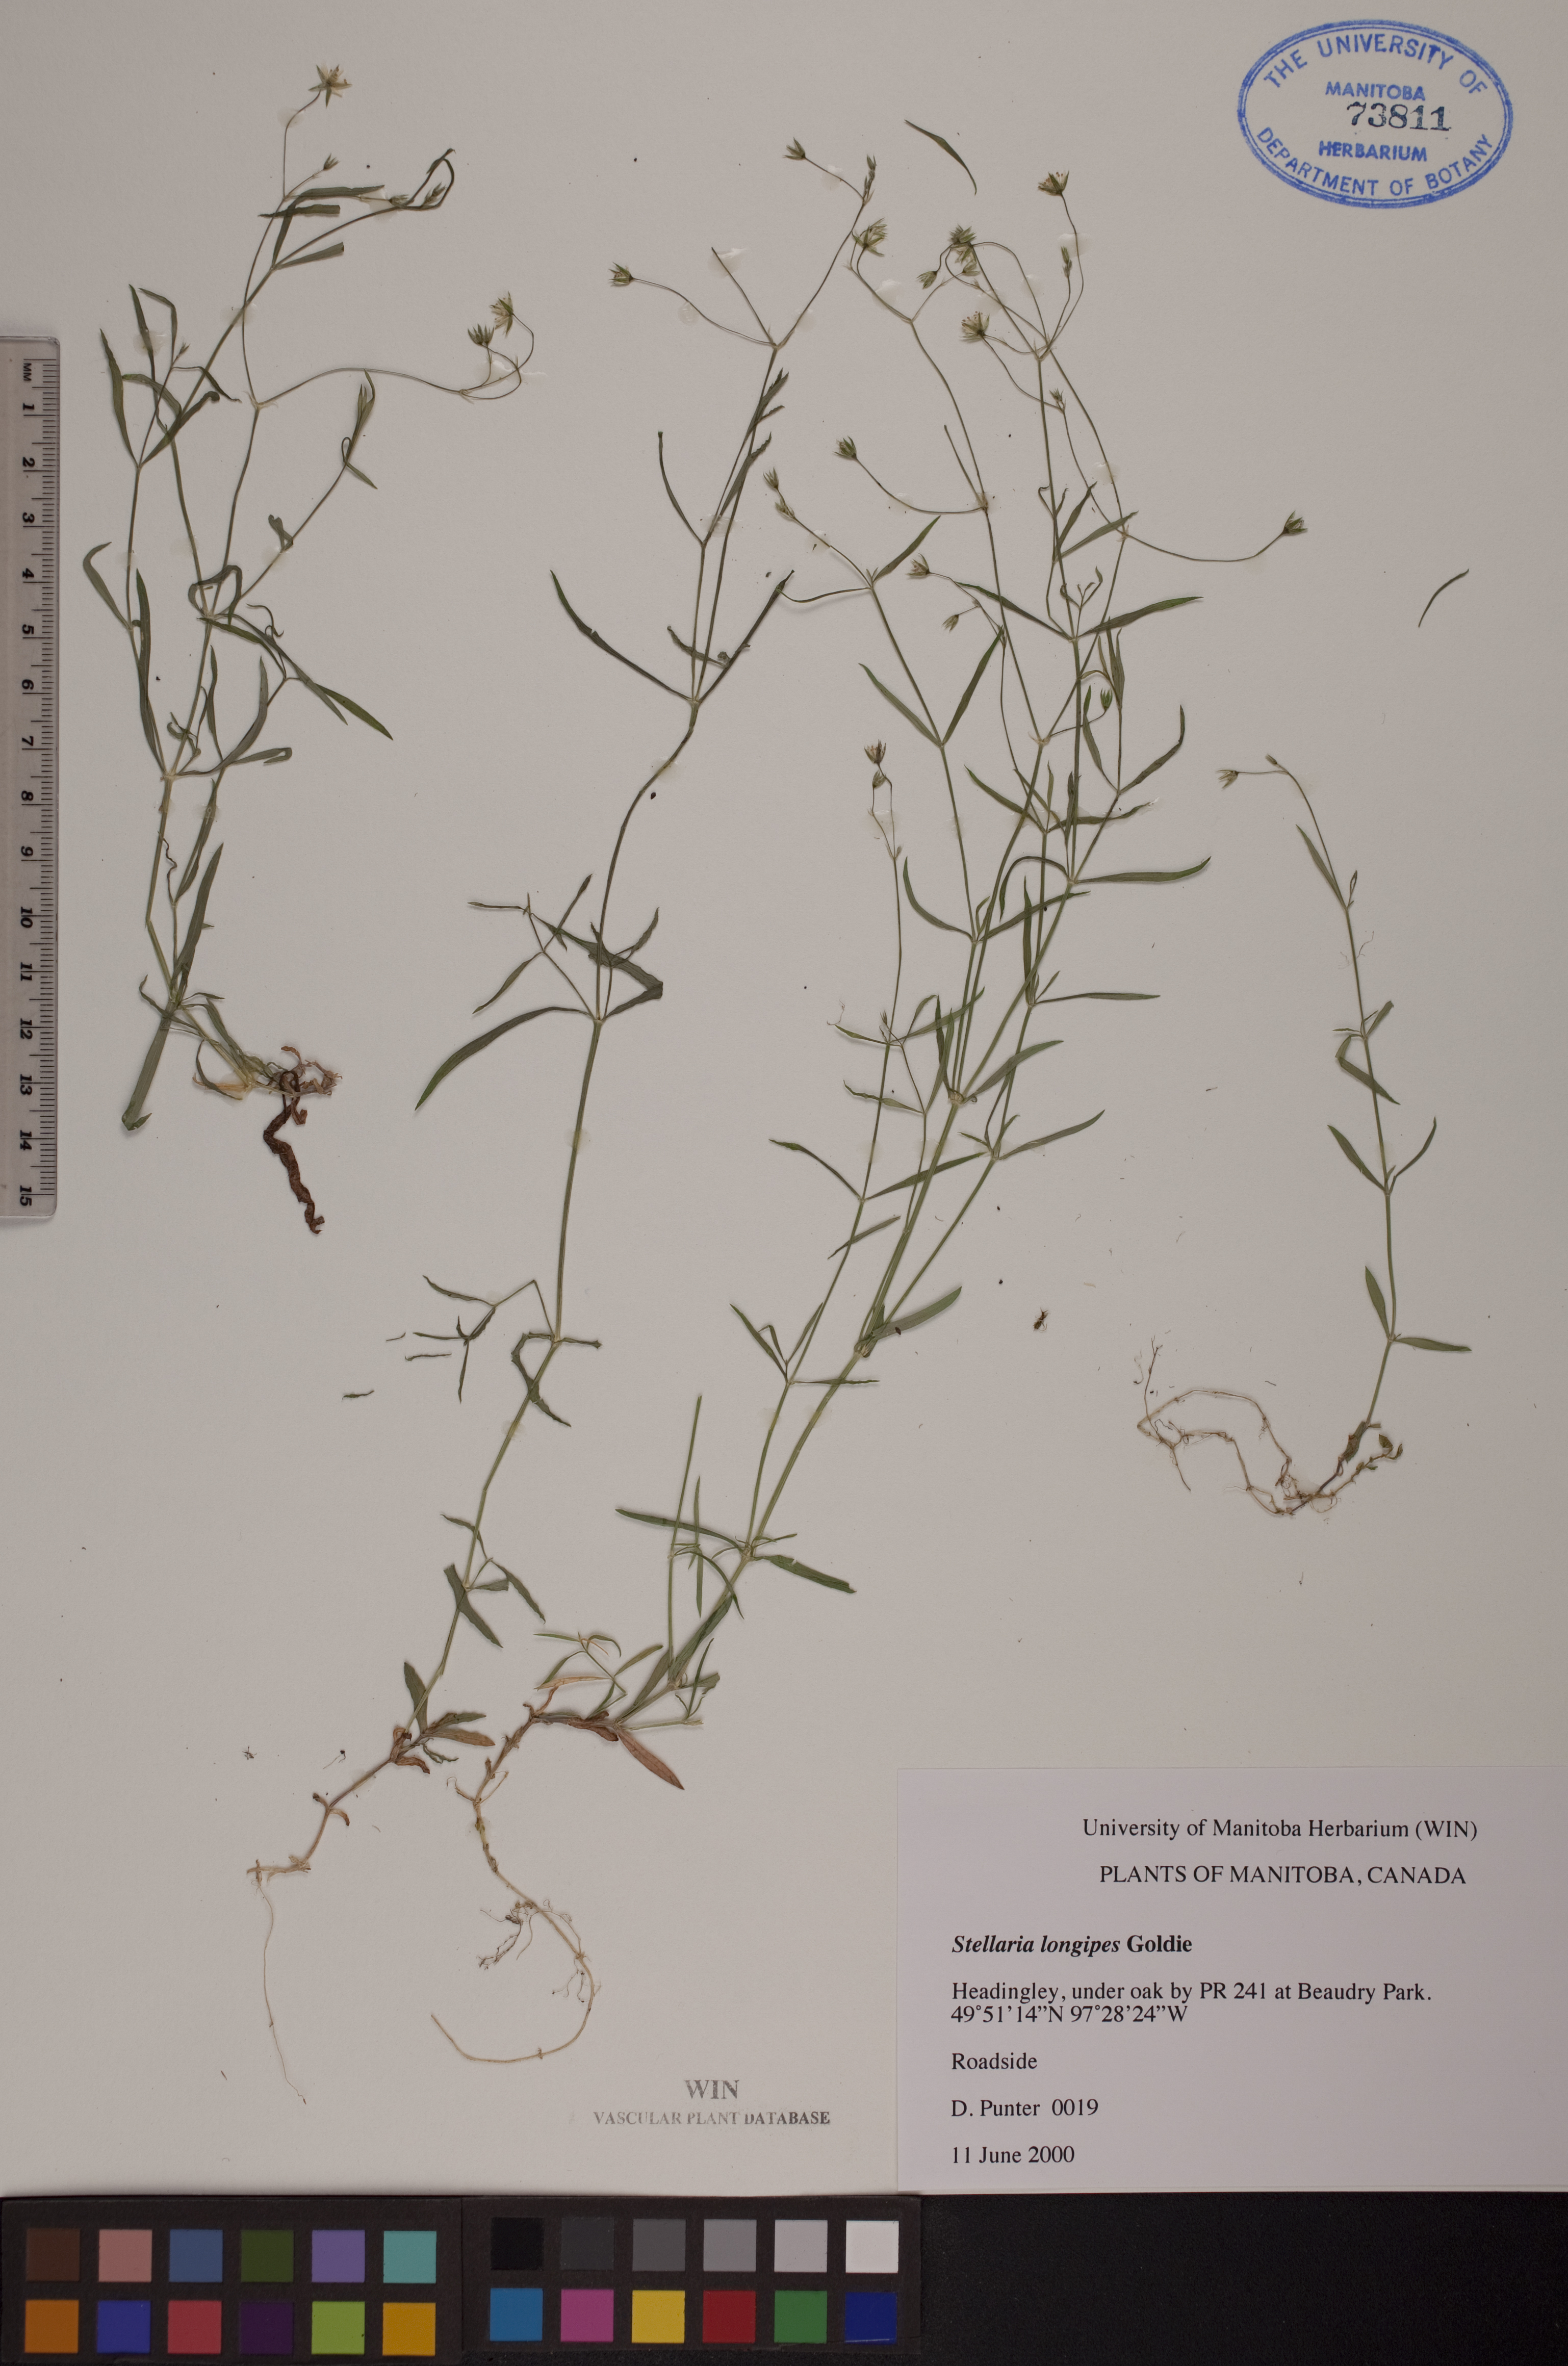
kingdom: Plantae
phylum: Tracheophyta
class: Magnoliopsida
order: Caryophyllales
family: Caryophyllaceae
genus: Stellaria
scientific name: Stellaria longipes
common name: Goldie's starwort
